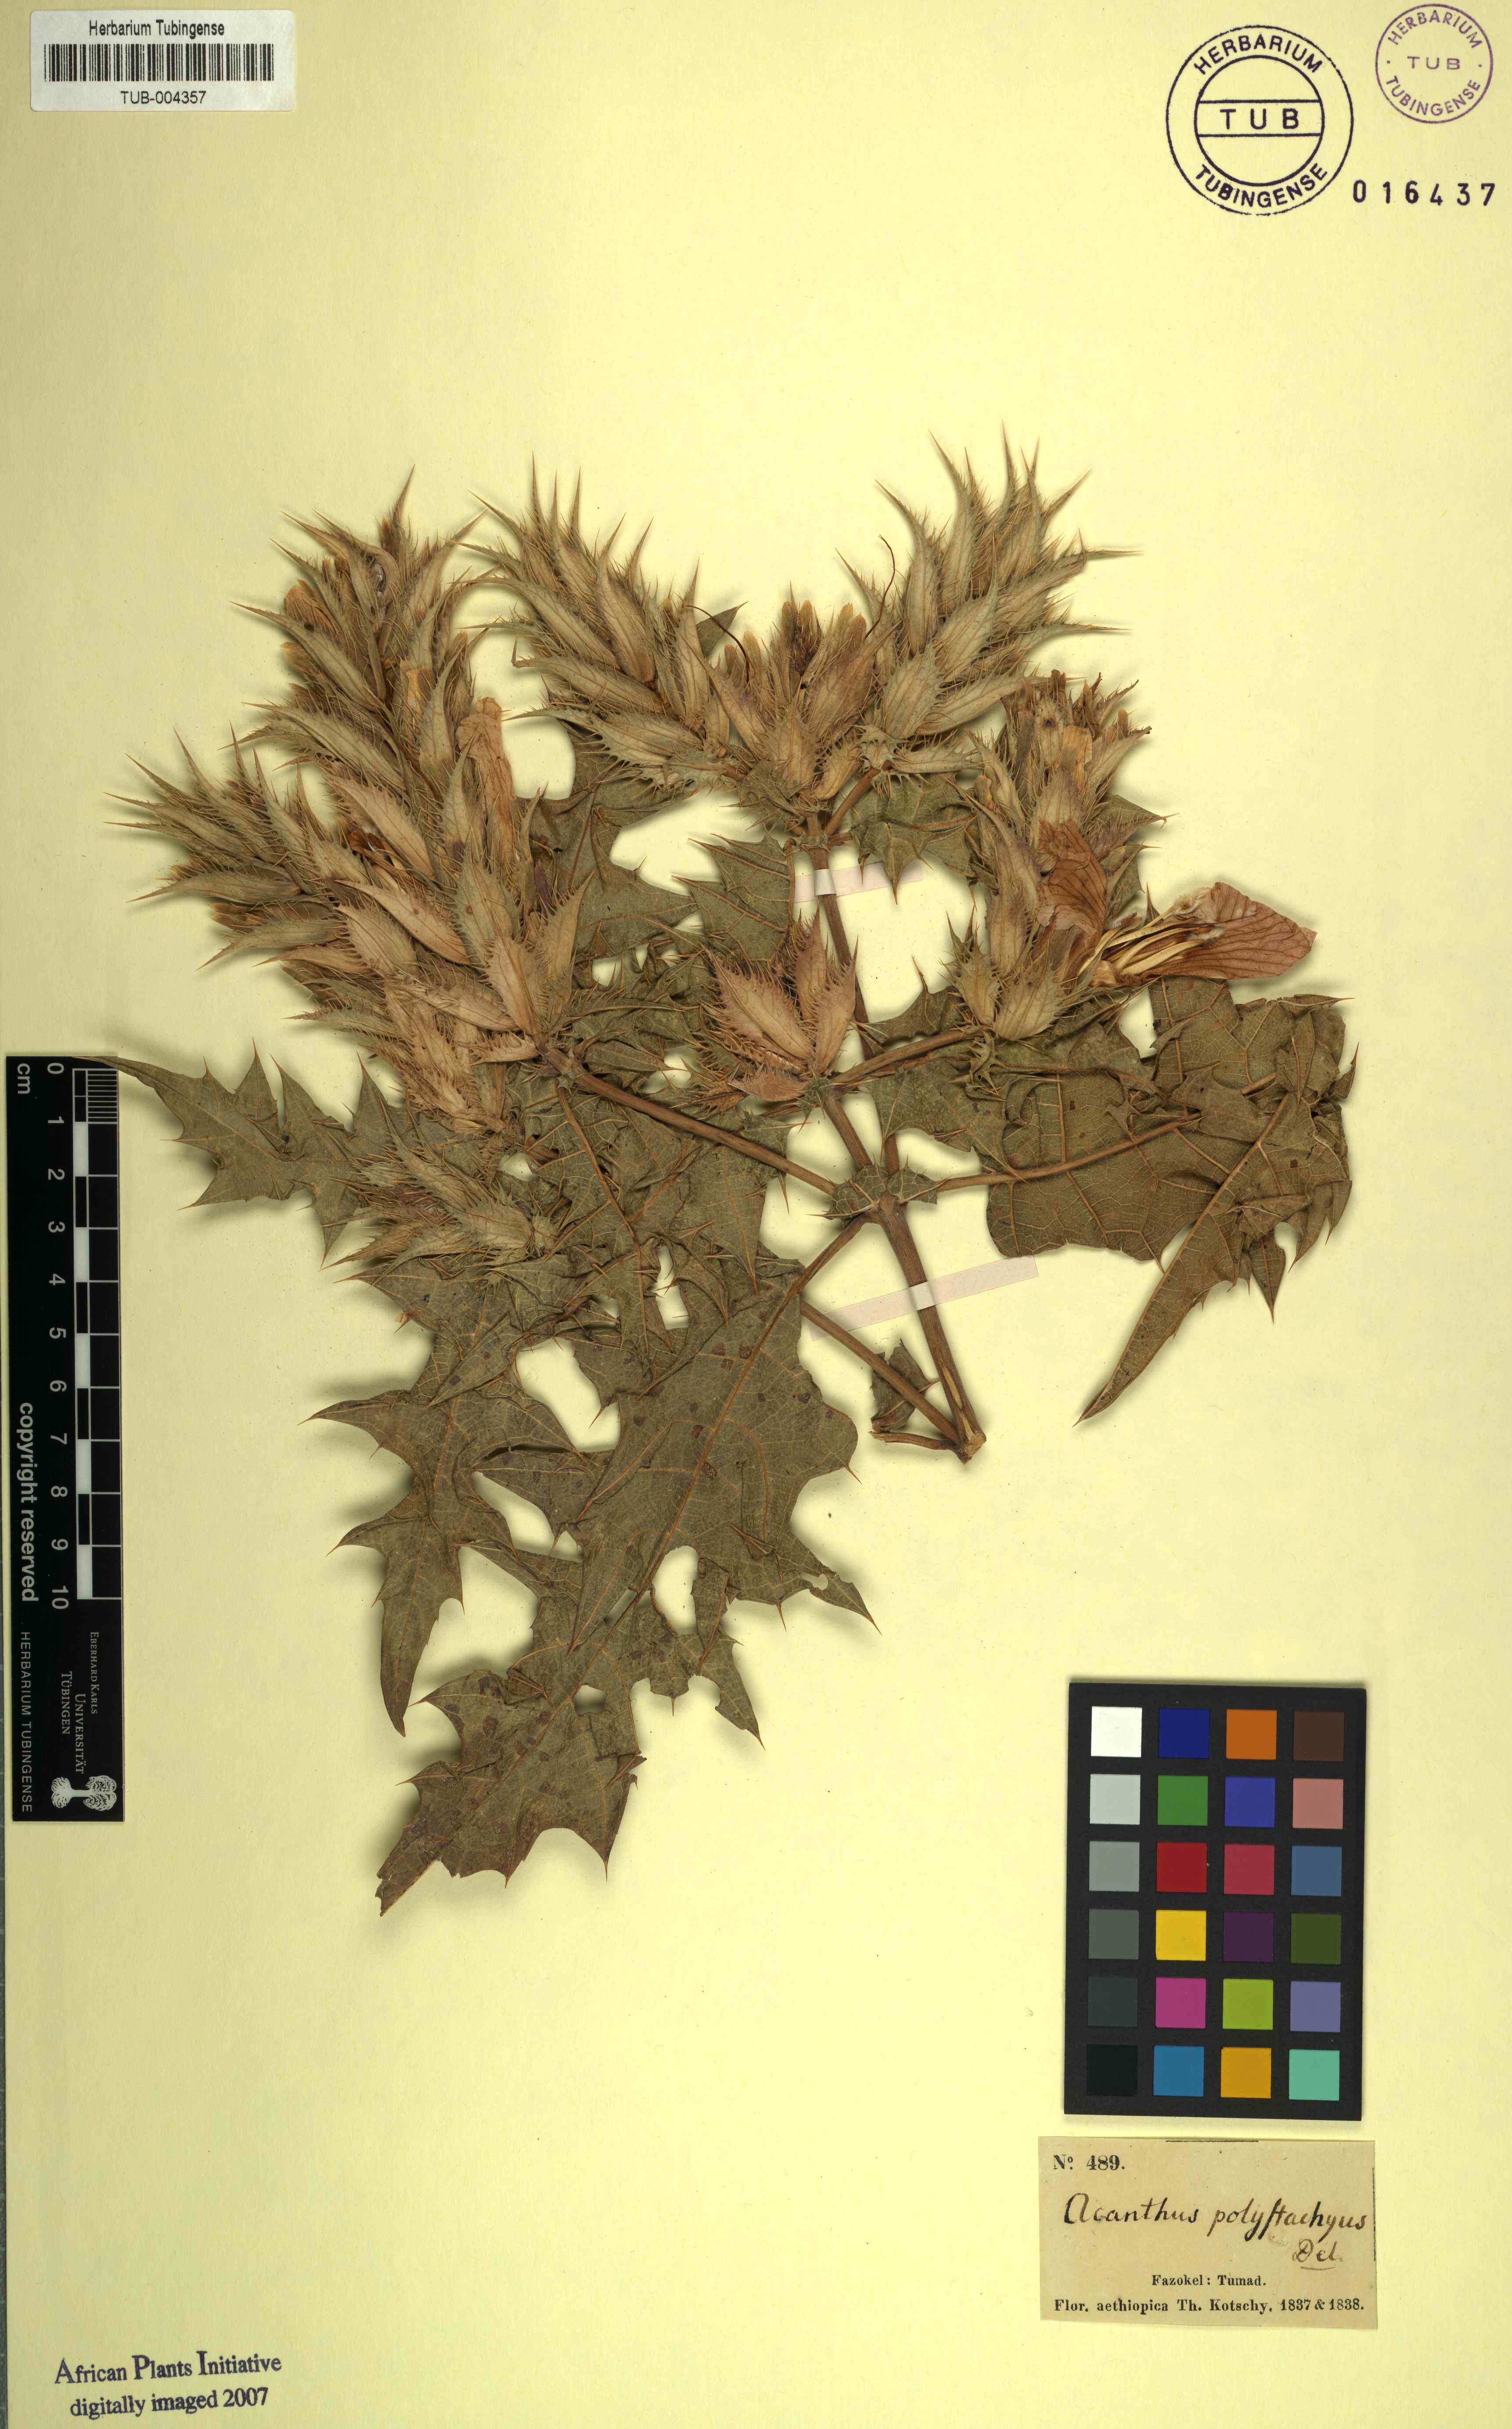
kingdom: Plantae
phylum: Tracheophyta
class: Magnoliopsida
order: Lamiales
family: Acanthaceae
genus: Acanthus
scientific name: Acanthus polystachyus
